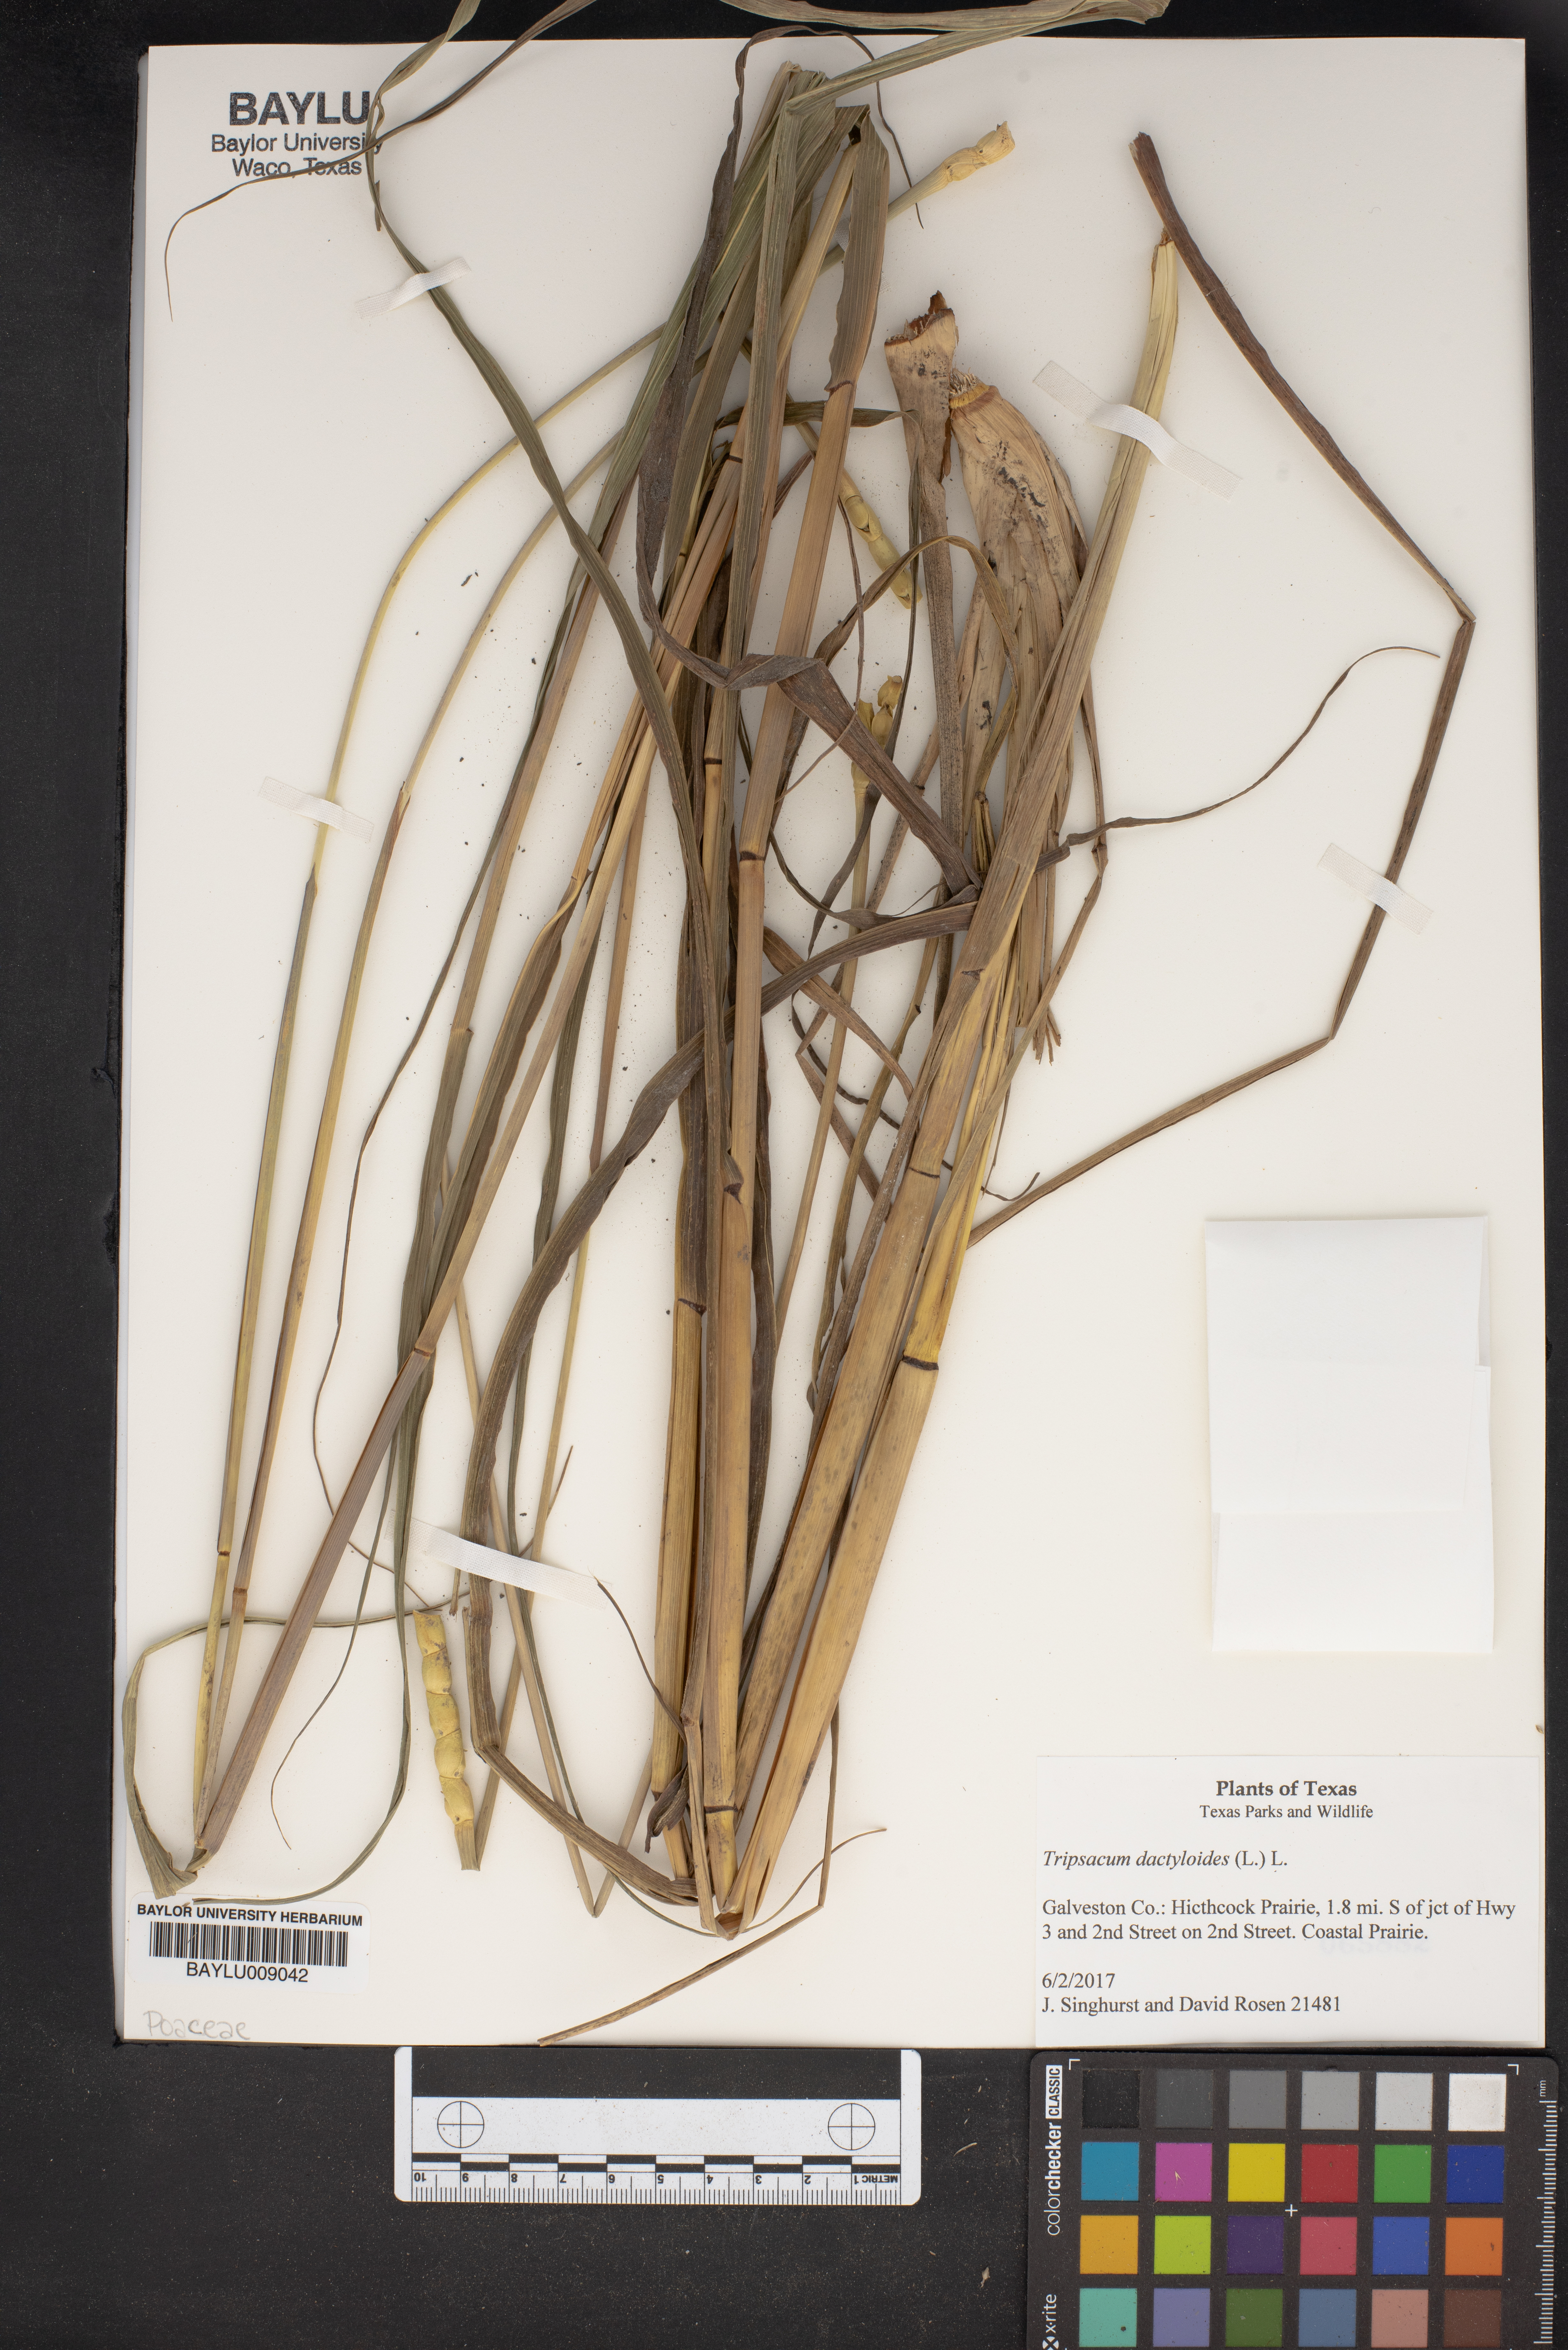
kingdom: Plantae
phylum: Tracheophyta
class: Liliopsida
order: Poales
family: Poaceae
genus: Tripsacum
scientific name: Tripsacum dactyloides
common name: Buffalo-grass
